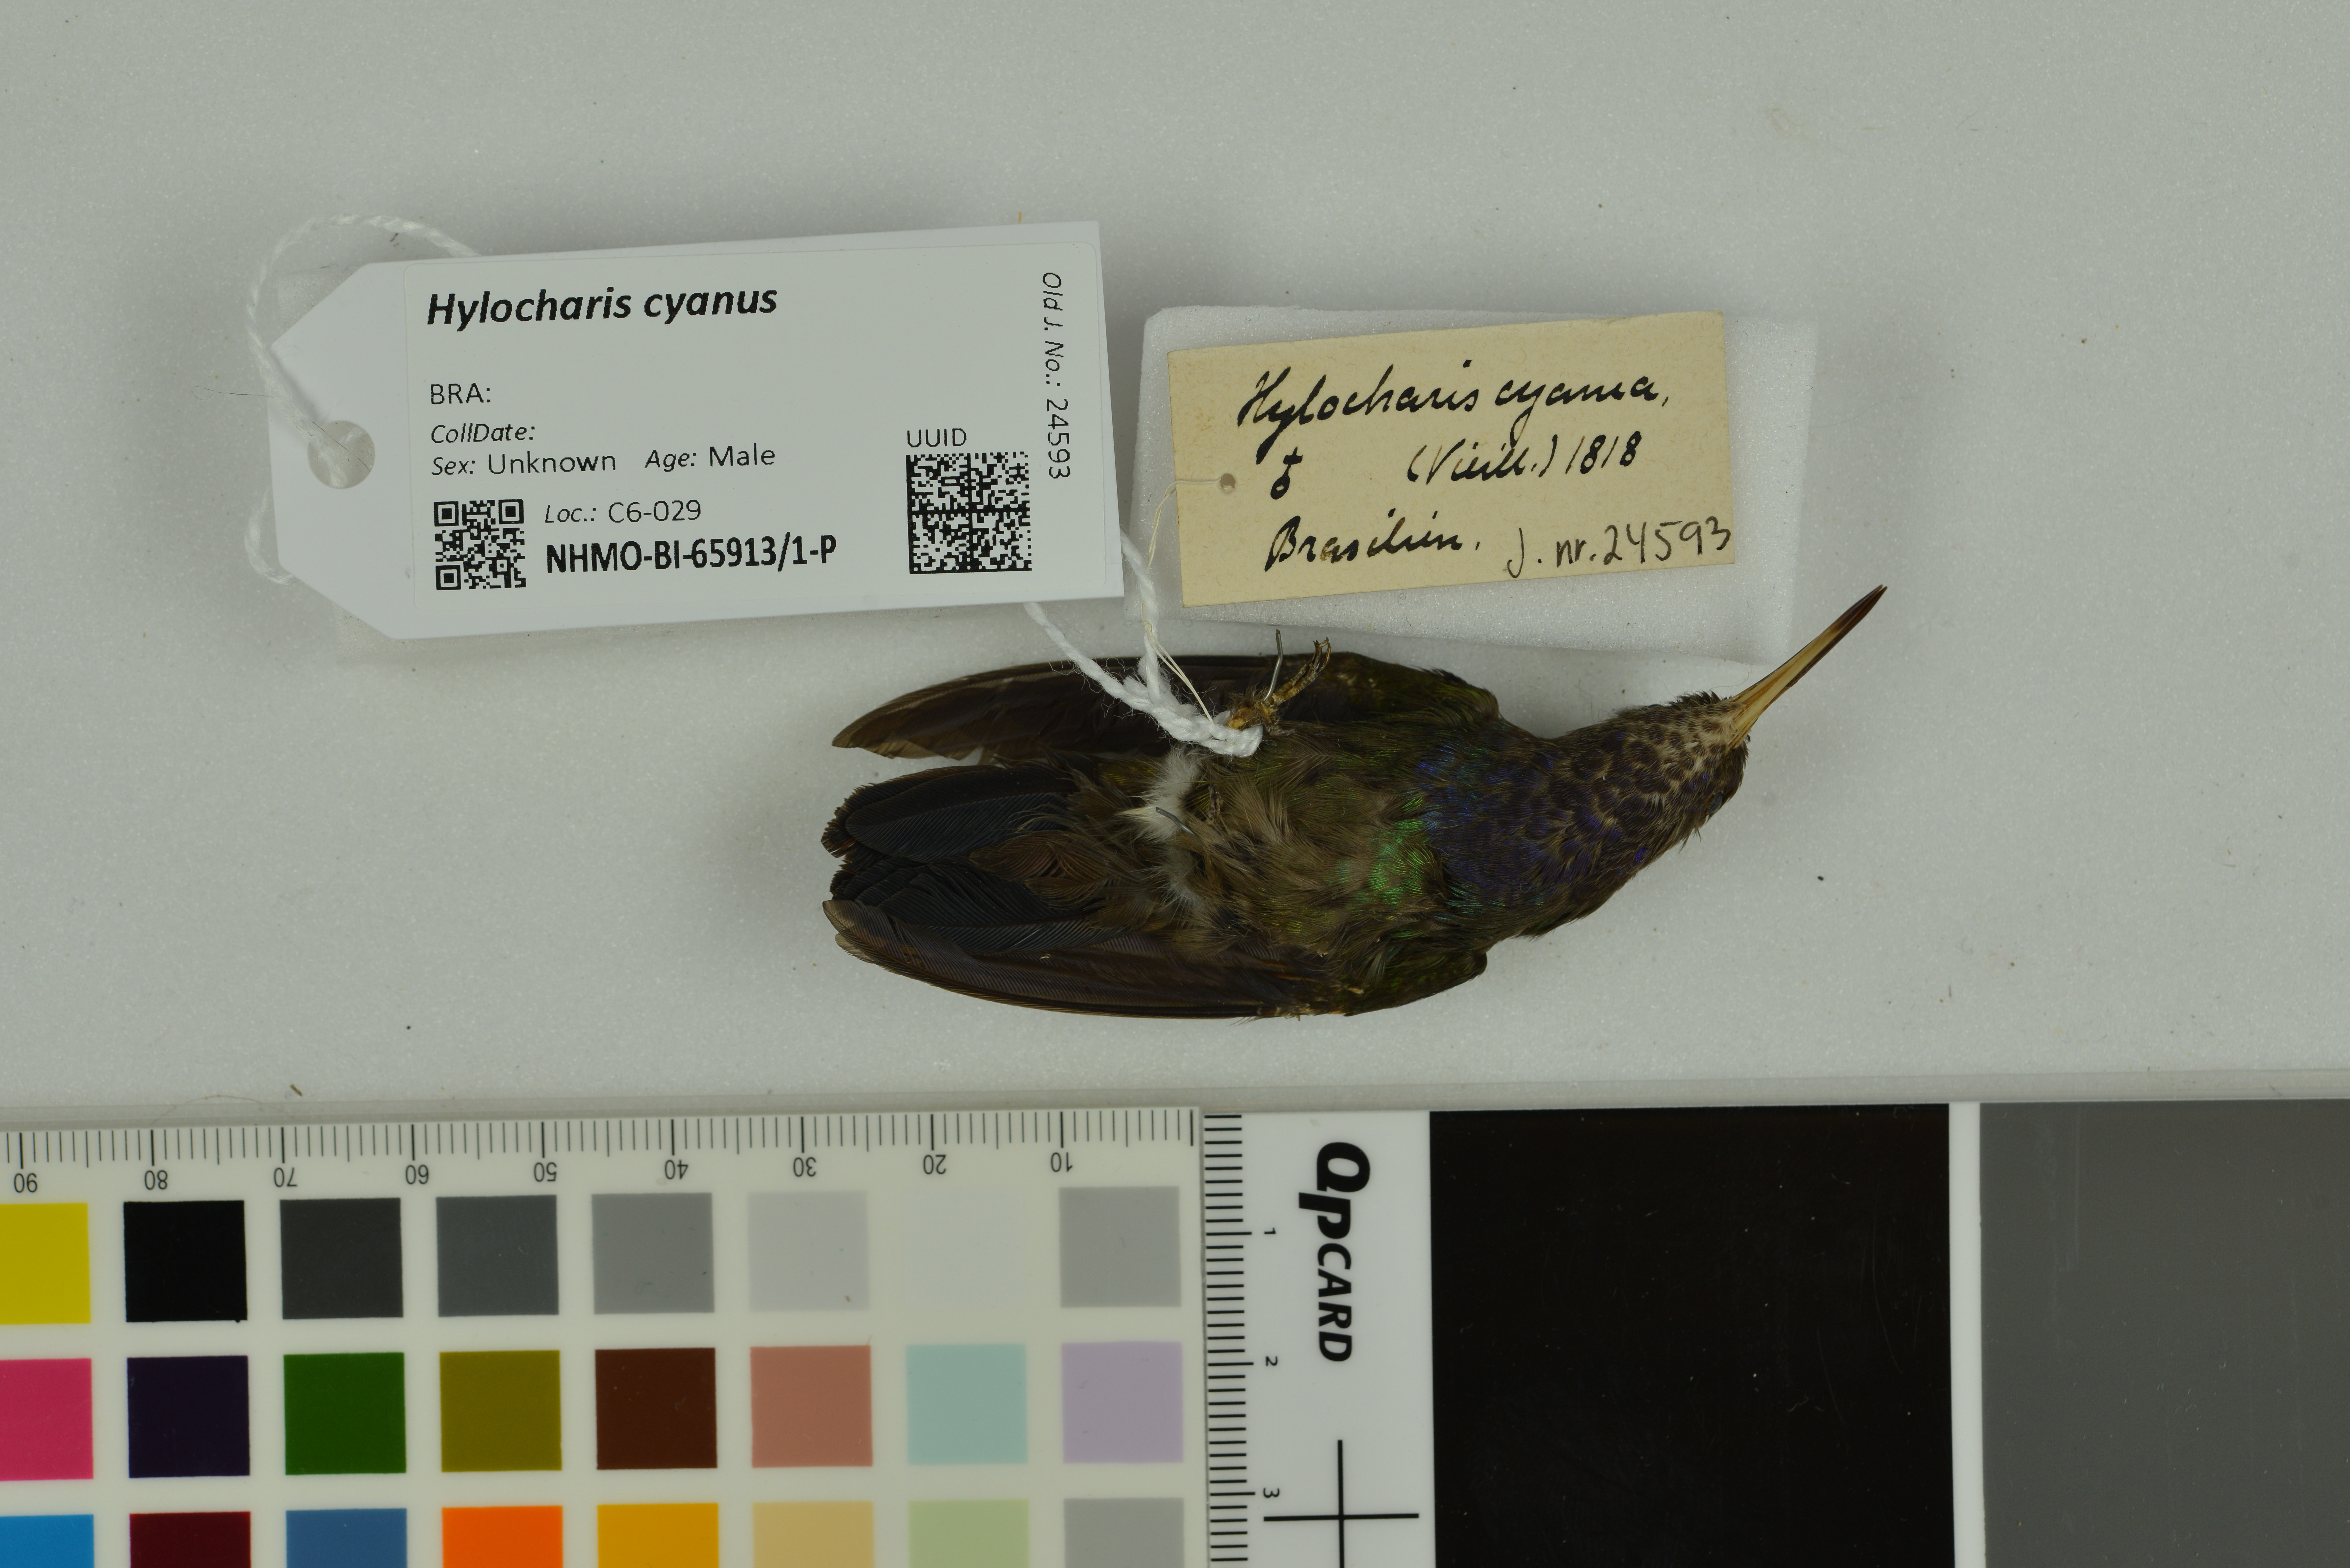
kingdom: Animalia
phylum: Chordata
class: Aves
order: Apodiformes
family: Trochilidae
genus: Chlorestes
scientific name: Chlorestes cyanus
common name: White-chinned sapphire
